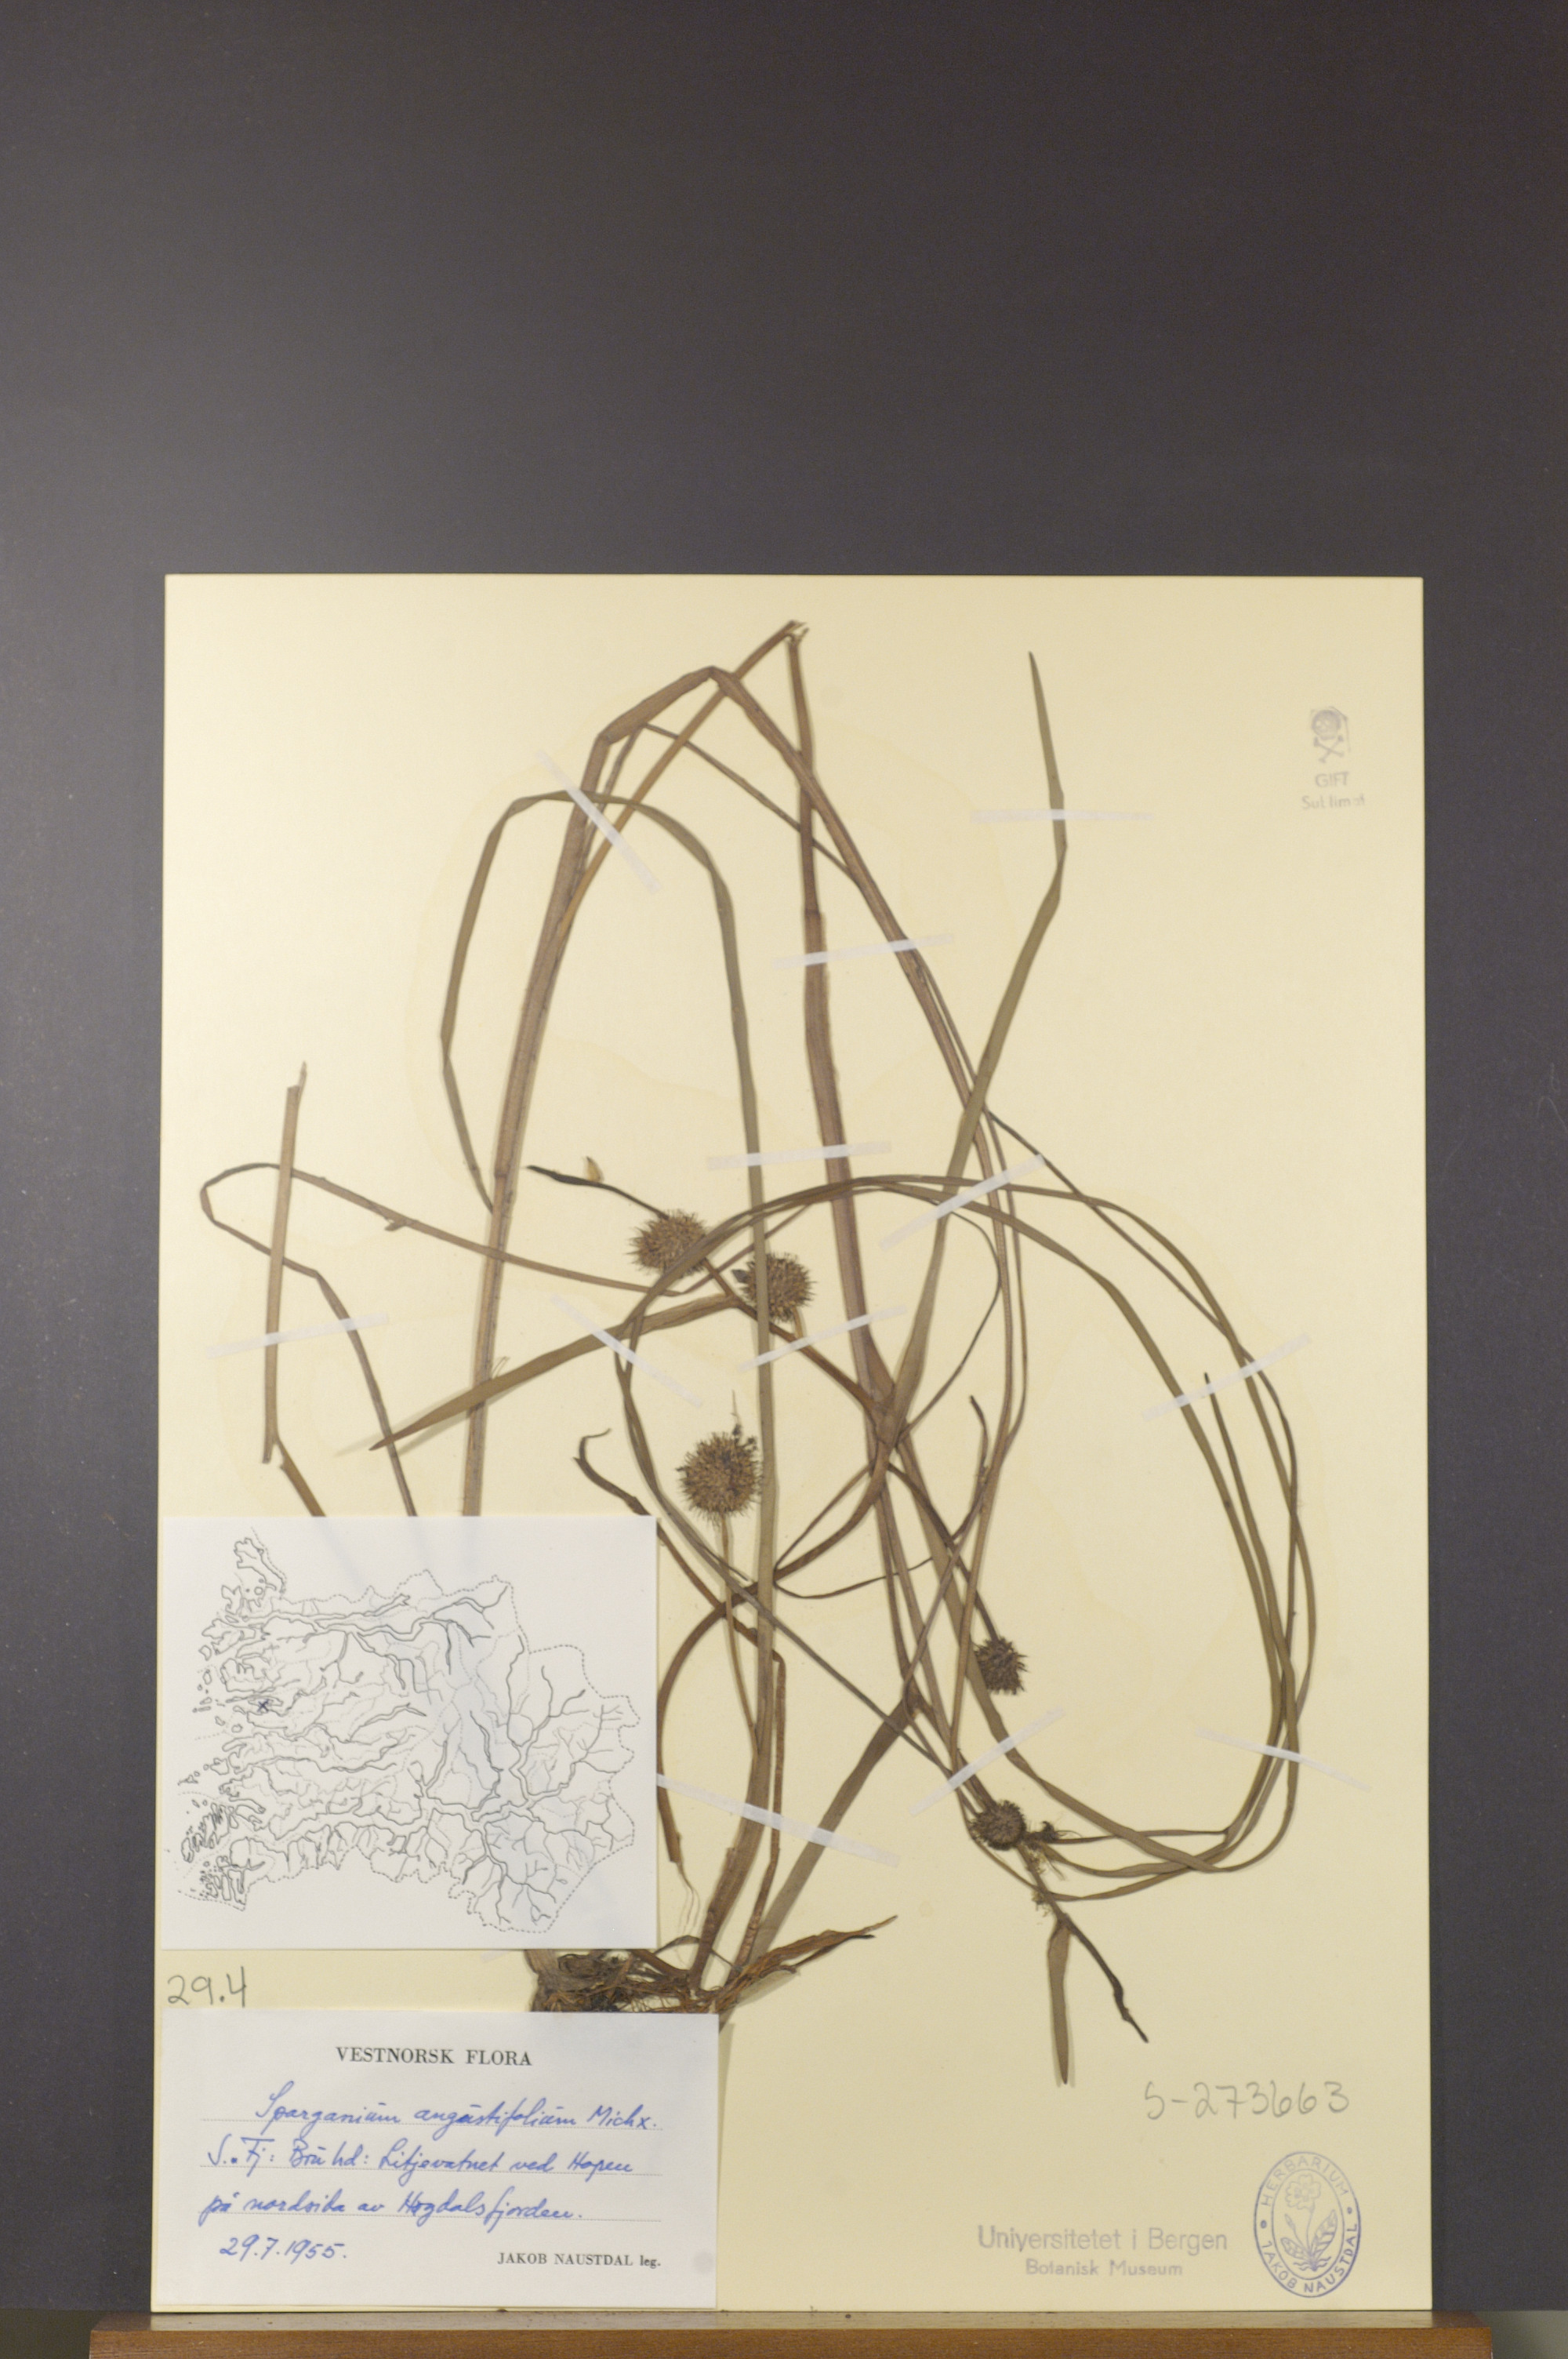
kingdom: Plantae
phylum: Tracheophyta
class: Liliopsida
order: Poales
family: Typhaceae
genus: Sparganium
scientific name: Sparganium angustifolium
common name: Floating bur-reed
